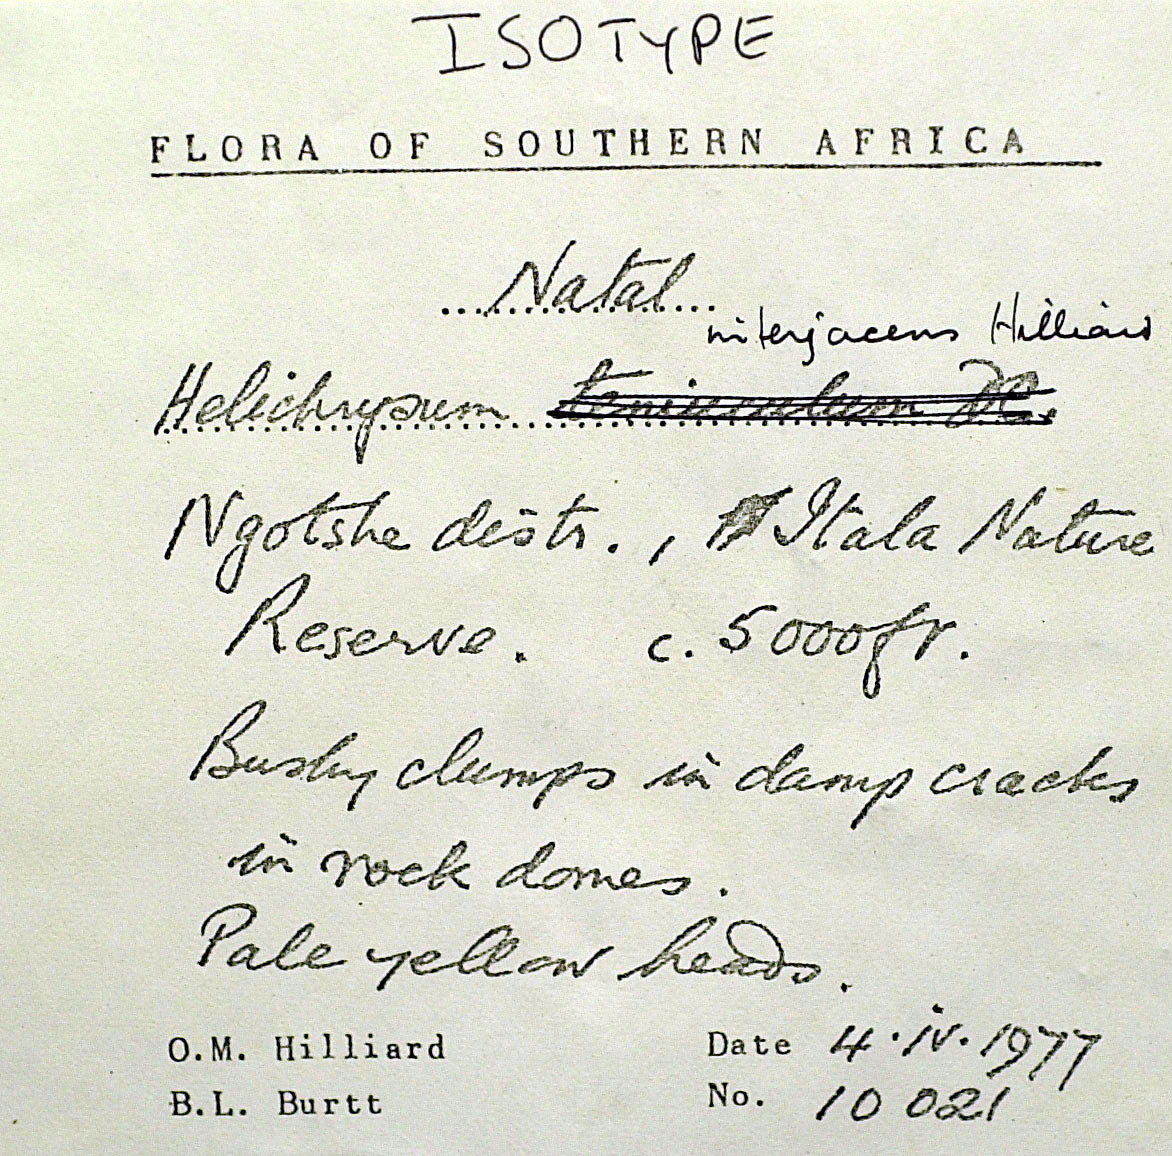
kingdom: Plantae
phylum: Tracheophyta
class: Magnoliopsida
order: Asterales
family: Asteraceae
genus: Helichrysum
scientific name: Helichrysum interjacens
